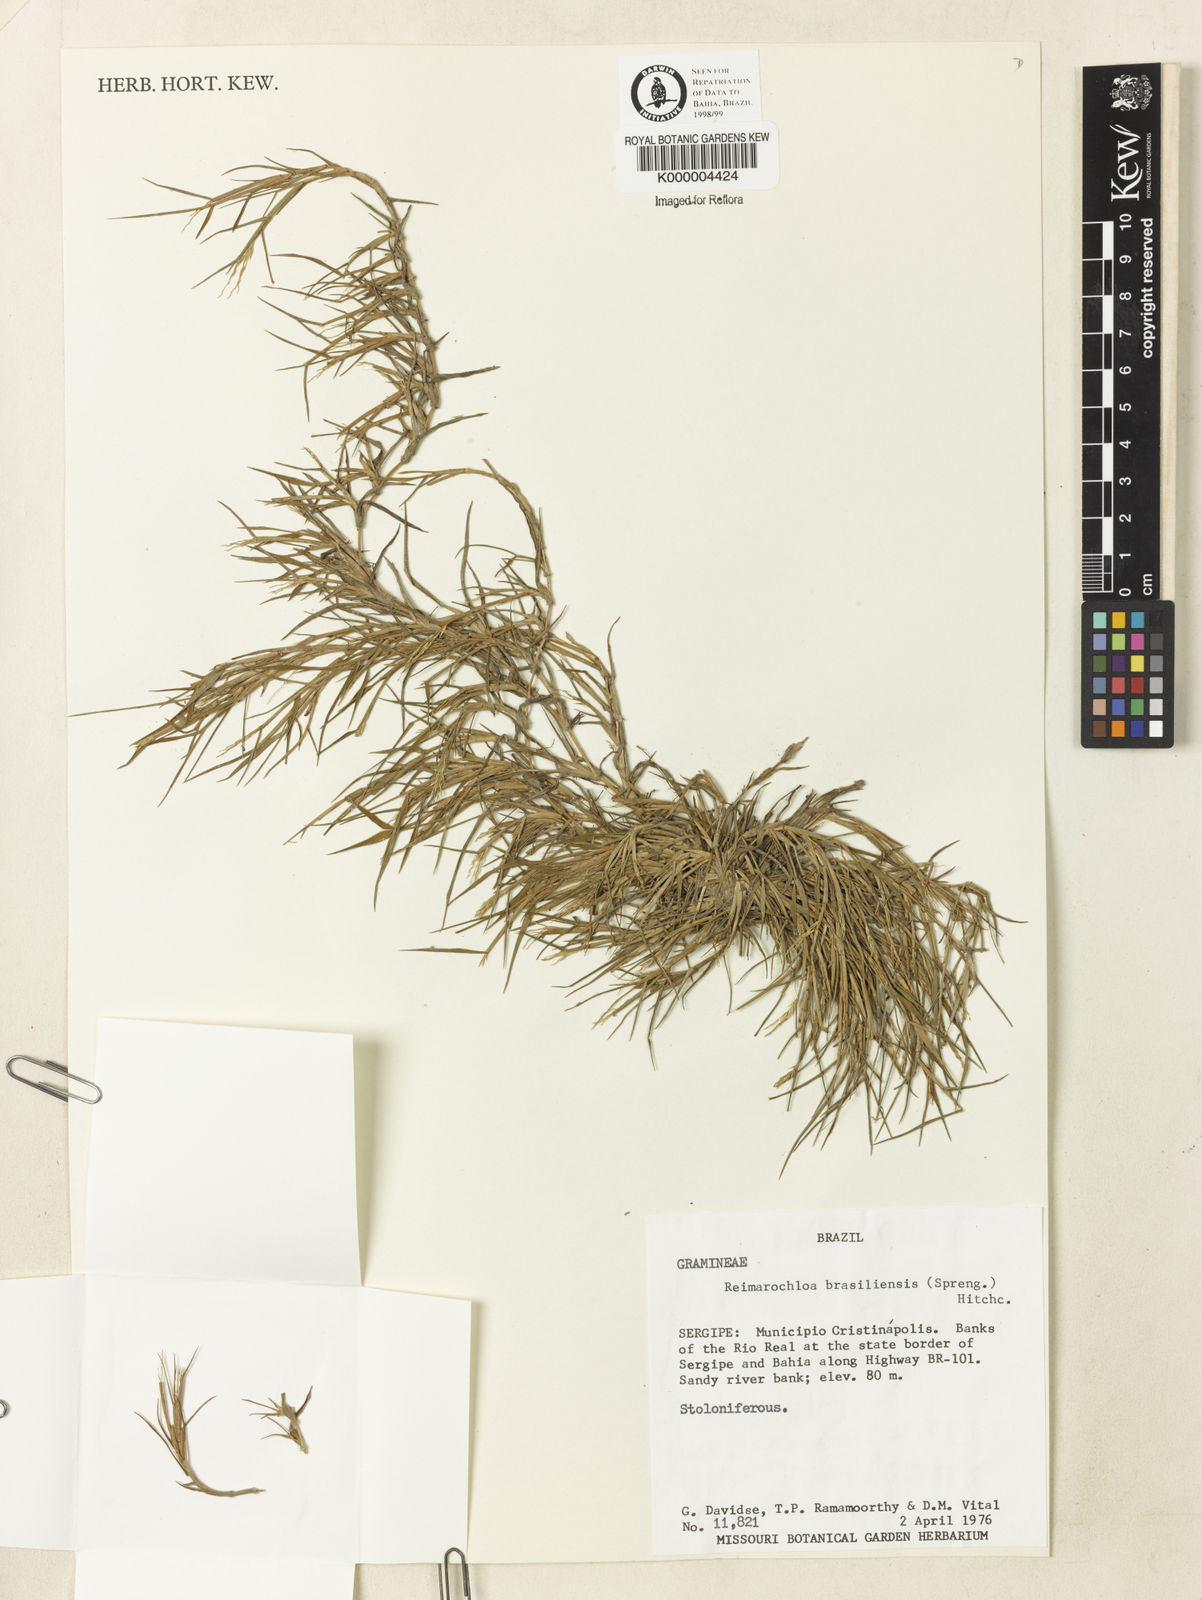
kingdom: Plantae
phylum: Tracheophyta
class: Liliopsida
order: Poales
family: Poaceae
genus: Paspalum
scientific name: Paspalum stagnophilum
